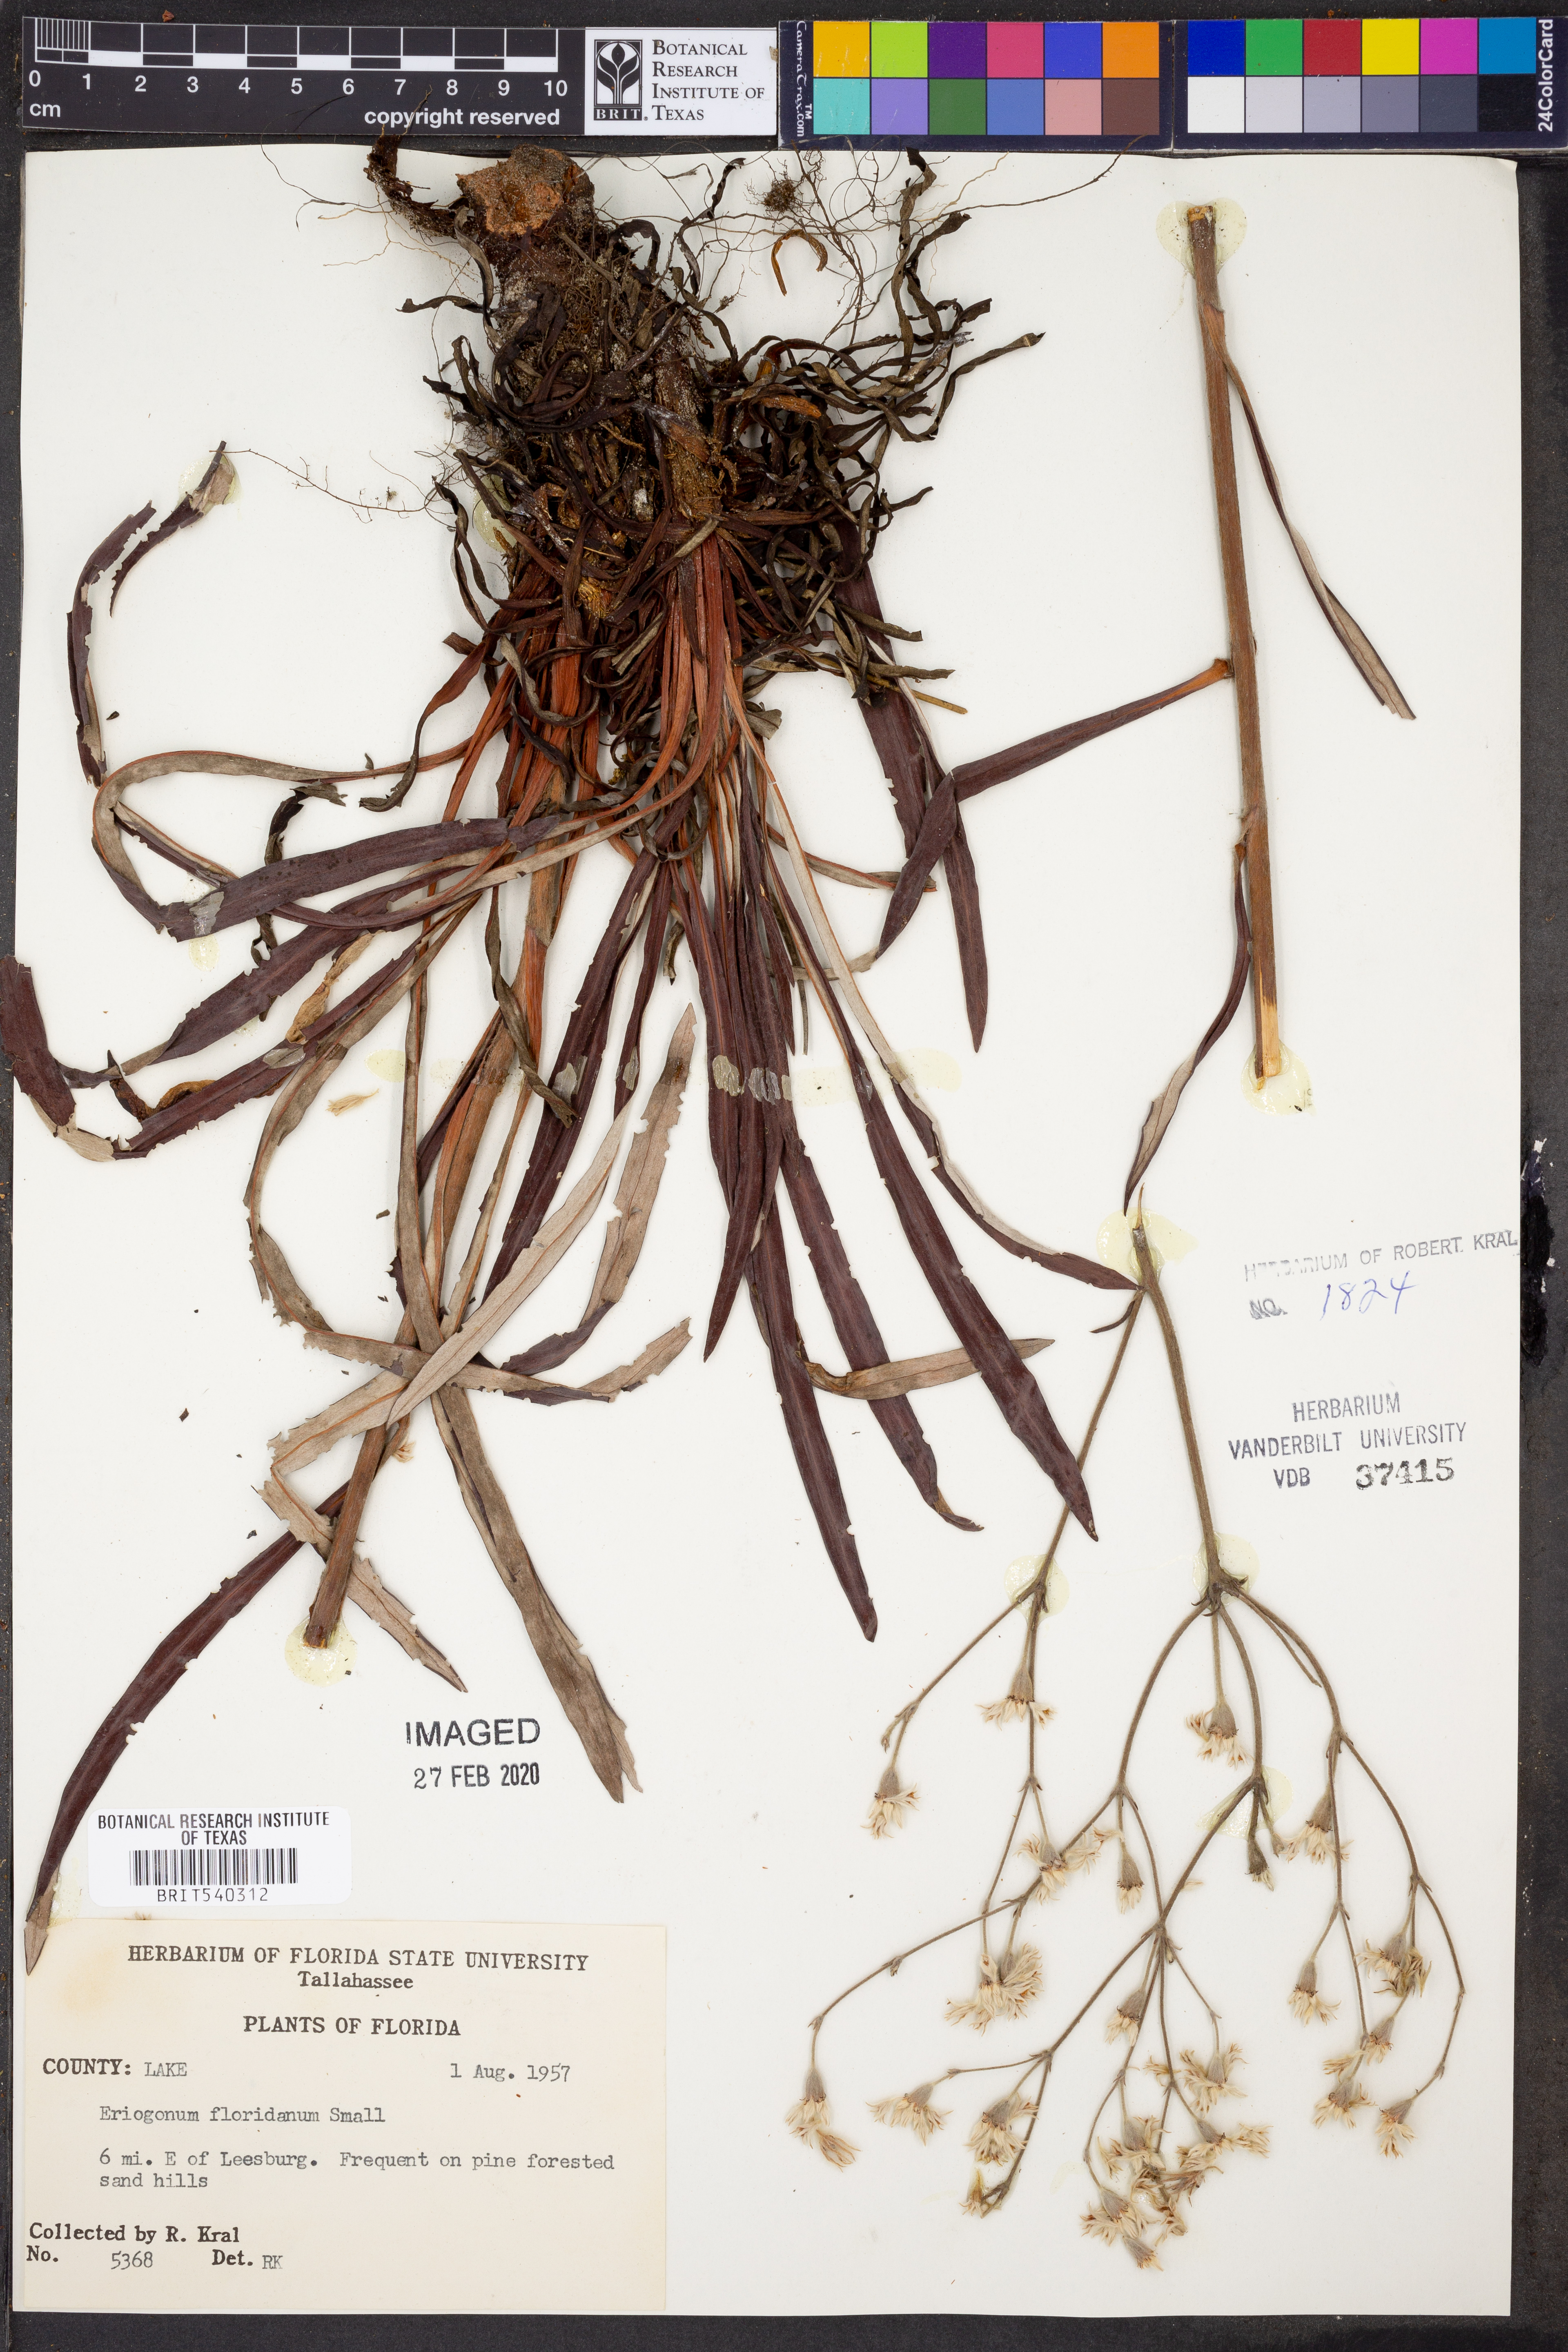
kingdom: Plantae
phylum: Tracheophyta
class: Magnoliopsida
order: Caryophyllales
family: Polygonaceae
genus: Eriogonum
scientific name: Eriogonum longifolium
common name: Longleaf wild buckwheat
